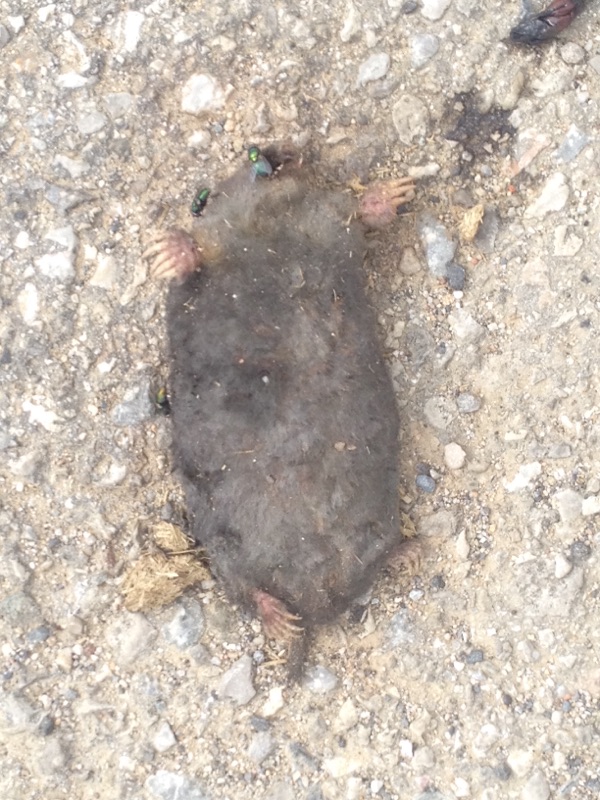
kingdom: Animalia
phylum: Chordata
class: Mammalia
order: Soricomorpha
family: Talpidae
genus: Talpa
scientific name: Talpa europaea
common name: European mole
